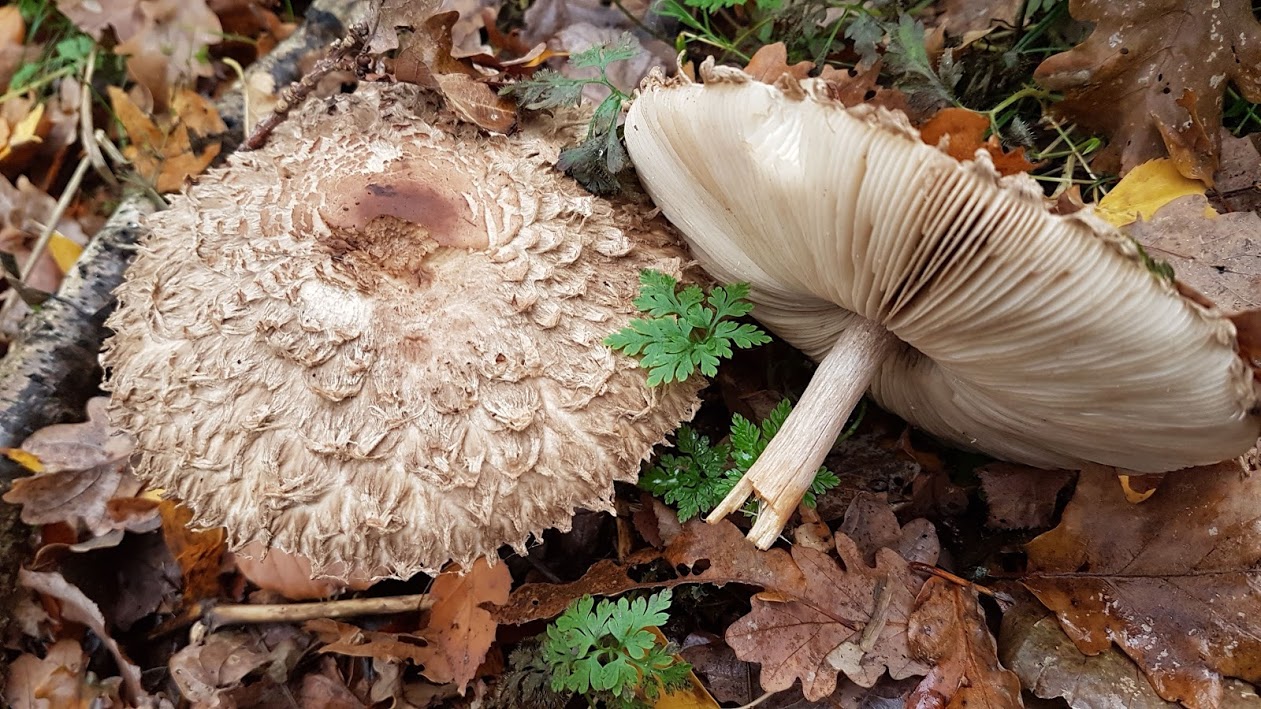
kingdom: Fungi
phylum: Basidiomycota
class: Agaricomycetes
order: Agaricales
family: Agaricaceae
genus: Chlorophyllum
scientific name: Chlorophyllum olivieri
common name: almindelig rabarberhat
